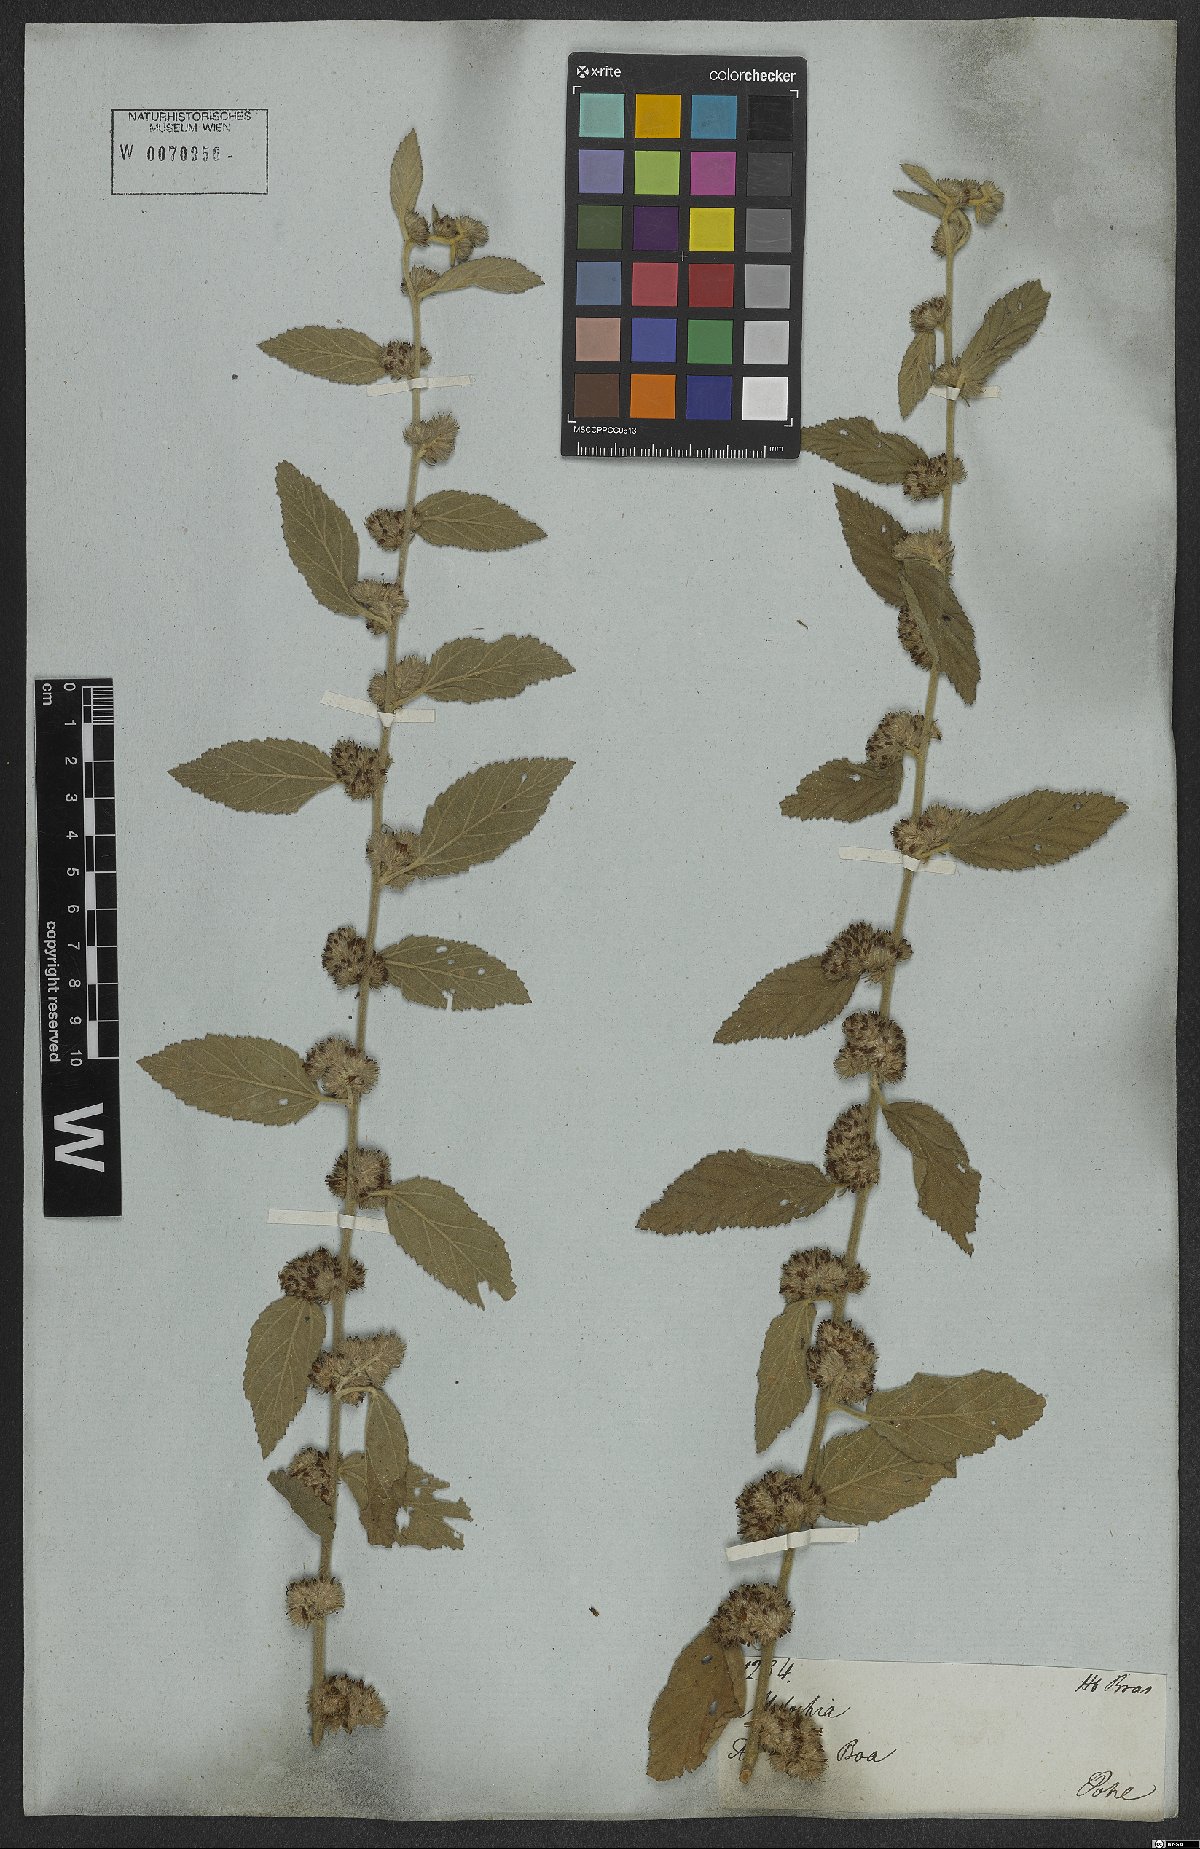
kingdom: Plantae
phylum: Tracheophyta
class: Magnoliopsida
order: Malvales
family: Malvaceae
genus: Waltheria
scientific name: Waltheria indica
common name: Leather-coat
